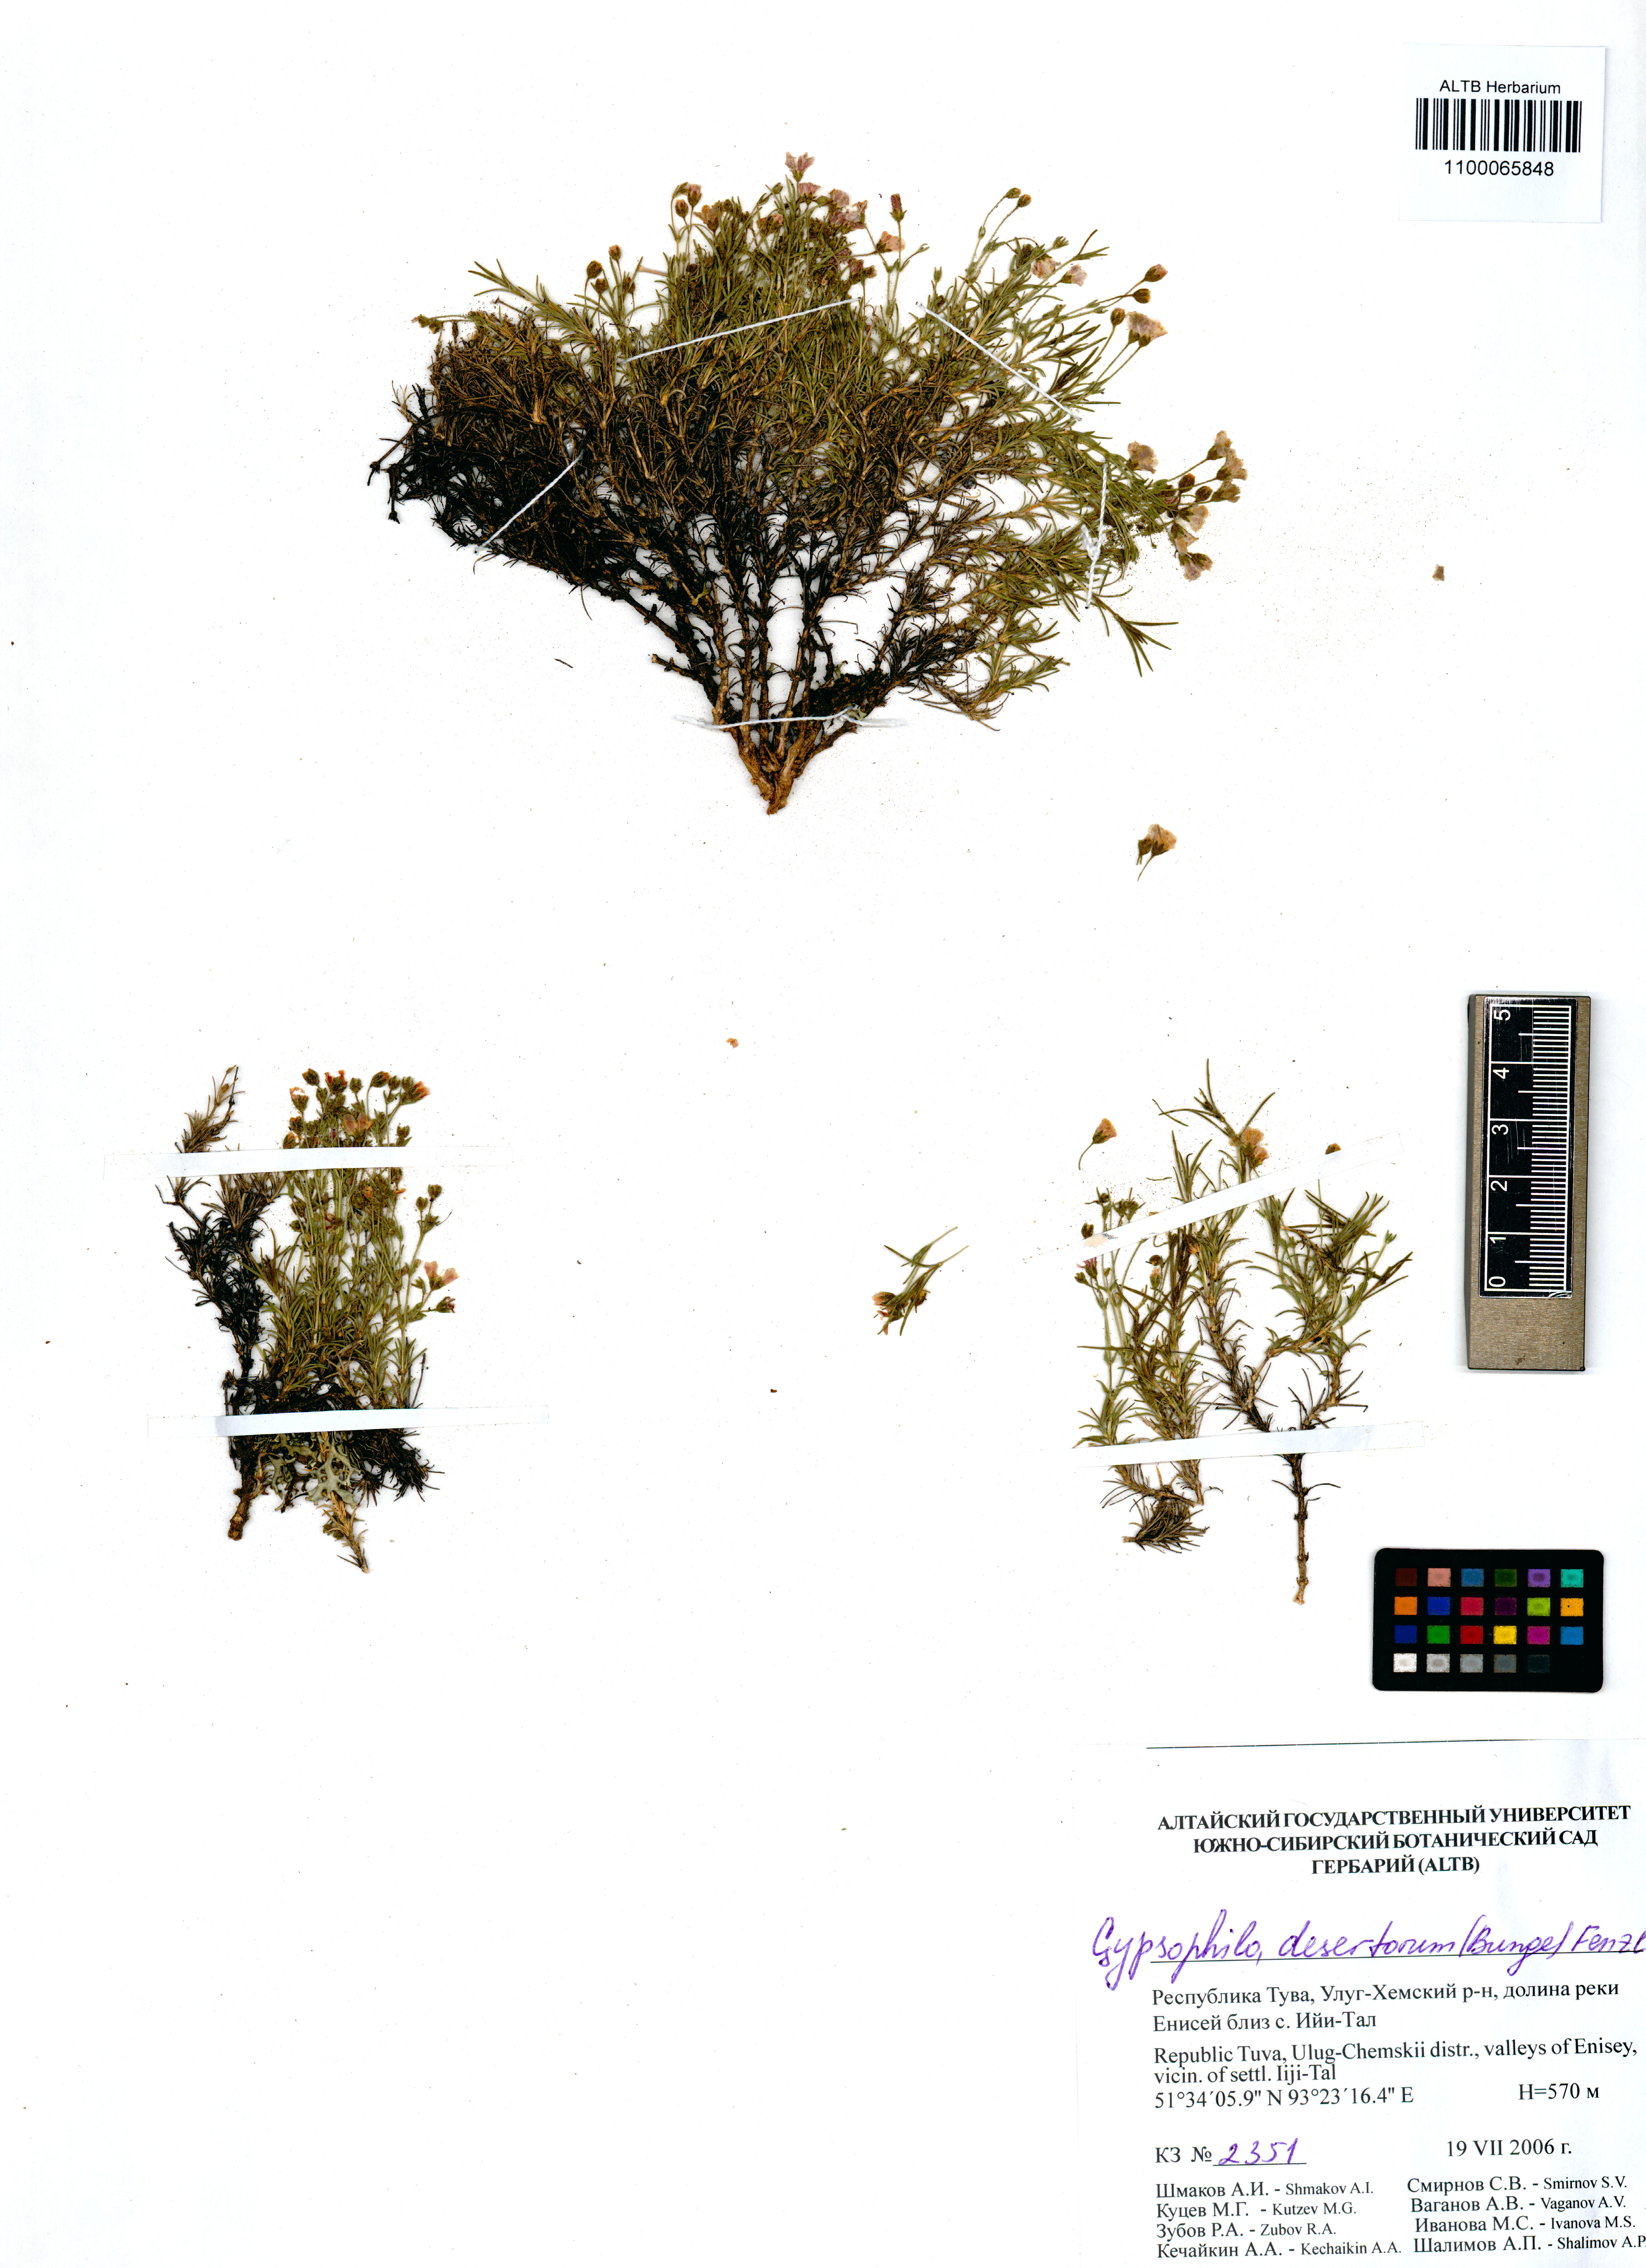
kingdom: Plantae
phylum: Tracheophyta
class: Magnoliopsida
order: Caryophyllales
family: Caryophyllaceae
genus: Heterochroa
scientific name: Heterochroa desertorum
